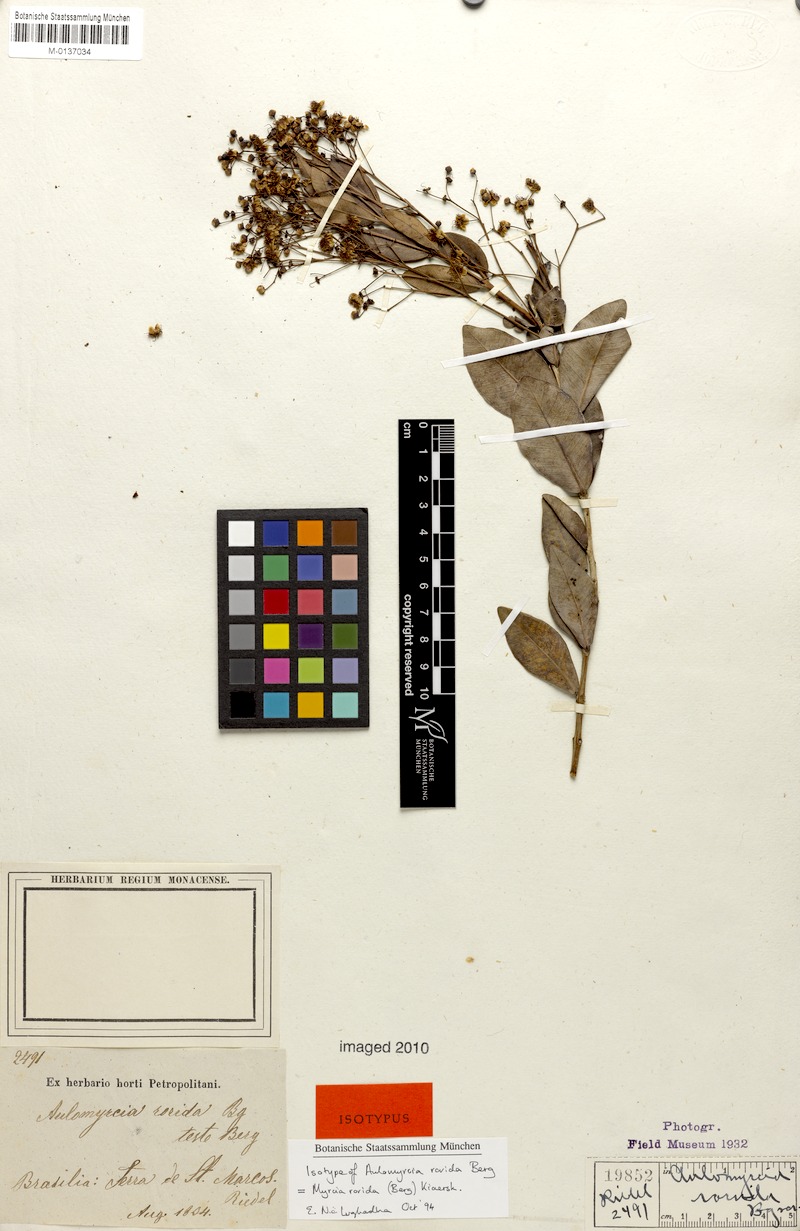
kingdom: Plantae
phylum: Tracheophyta
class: Magnoliopsida
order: Myrtales
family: Myrtaceae
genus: Myrcia
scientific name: Myrcia guianensis
